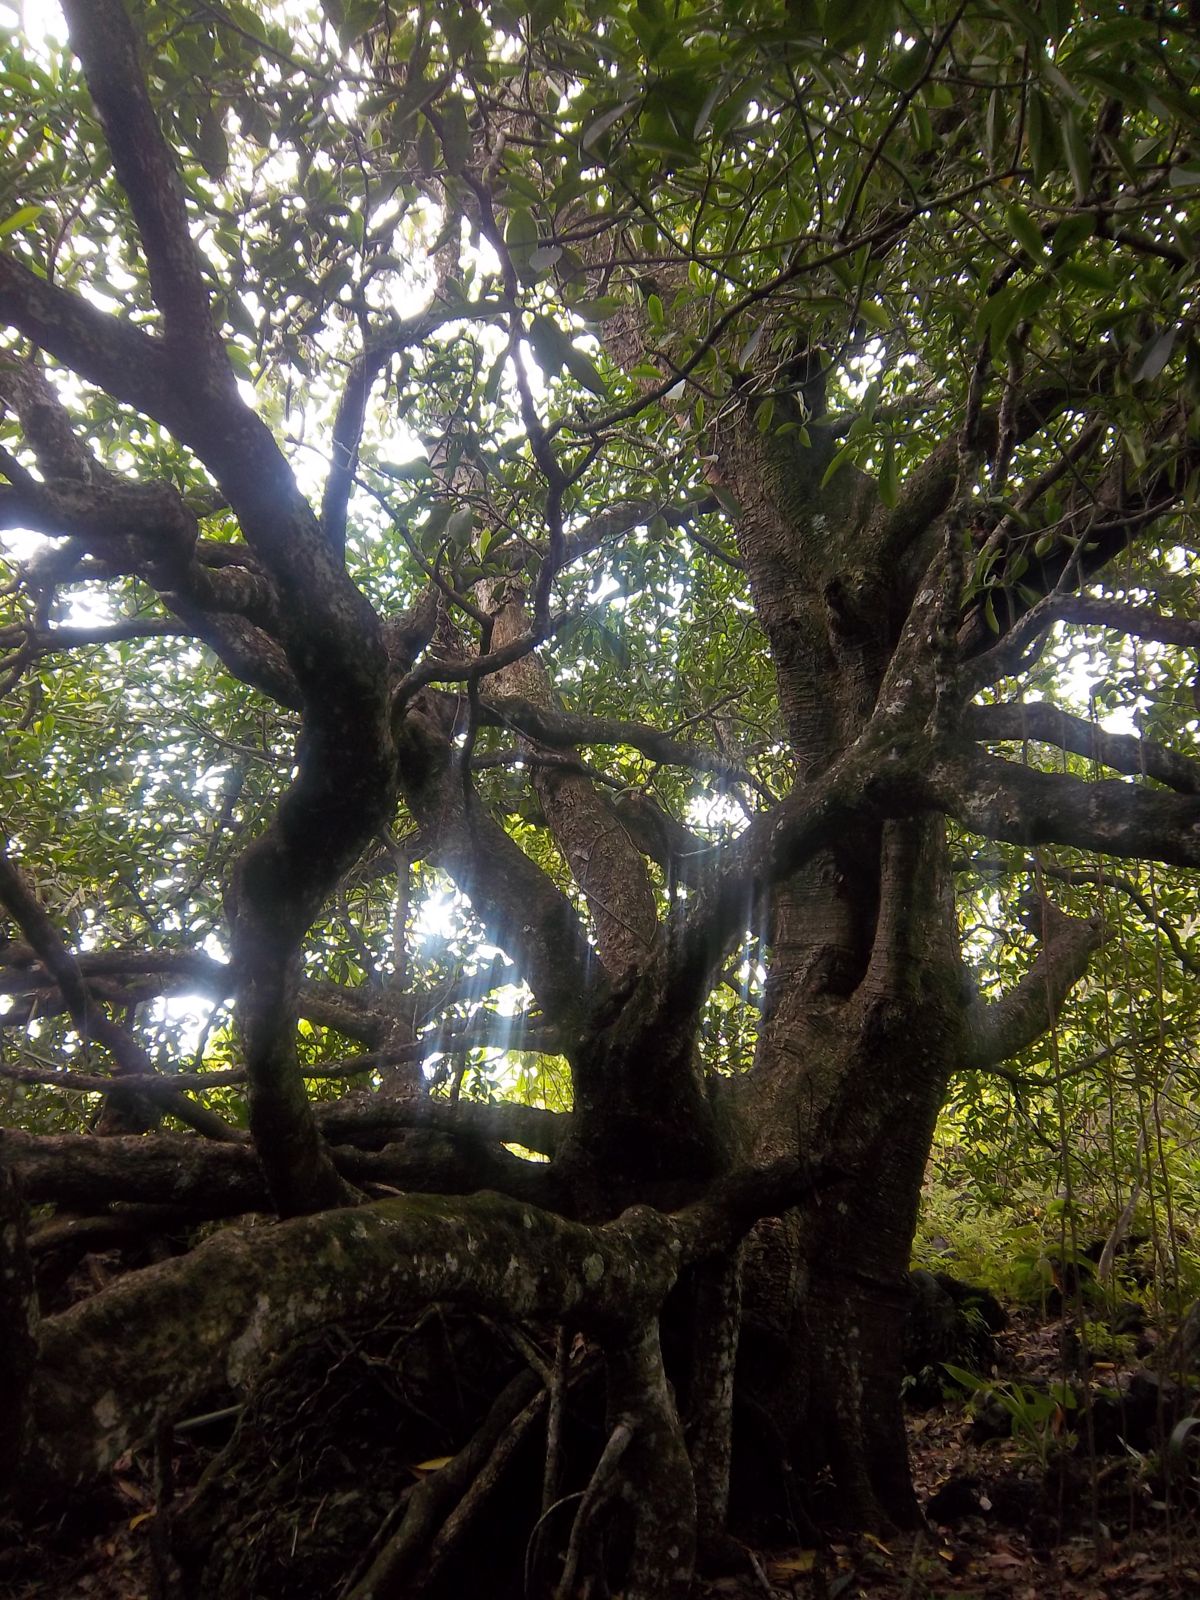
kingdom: Plantae
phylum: Tracheophyta
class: Magnoliopsida
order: Malpighiales
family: Clusiaceae
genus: Clusia
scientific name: Clusia guatemalensis
